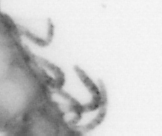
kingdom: Animalia
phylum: Annelida
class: Polychaeta
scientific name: Polychaeta
